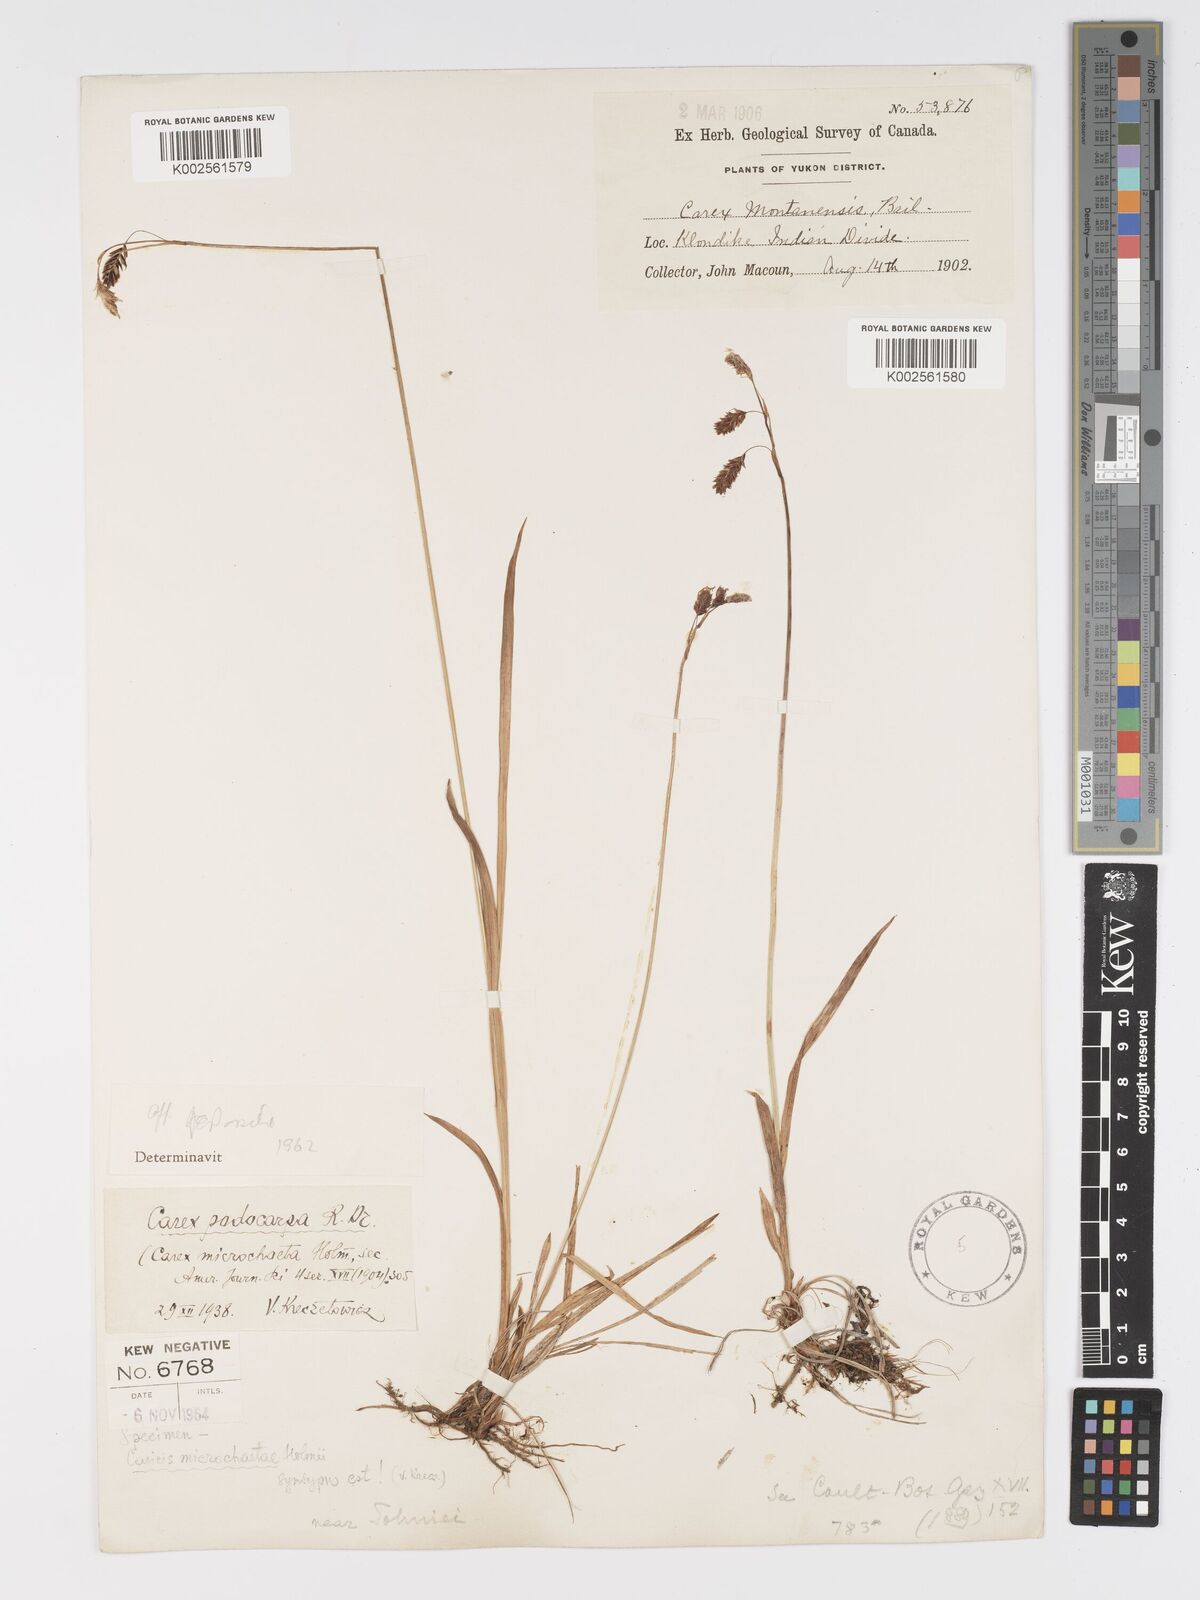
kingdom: Plantae
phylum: Tracheophyta
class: Liliopsida
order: Poales
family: Cyperaceae
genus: Carex
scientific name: Carex podocarpa
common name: Alpine sedge
